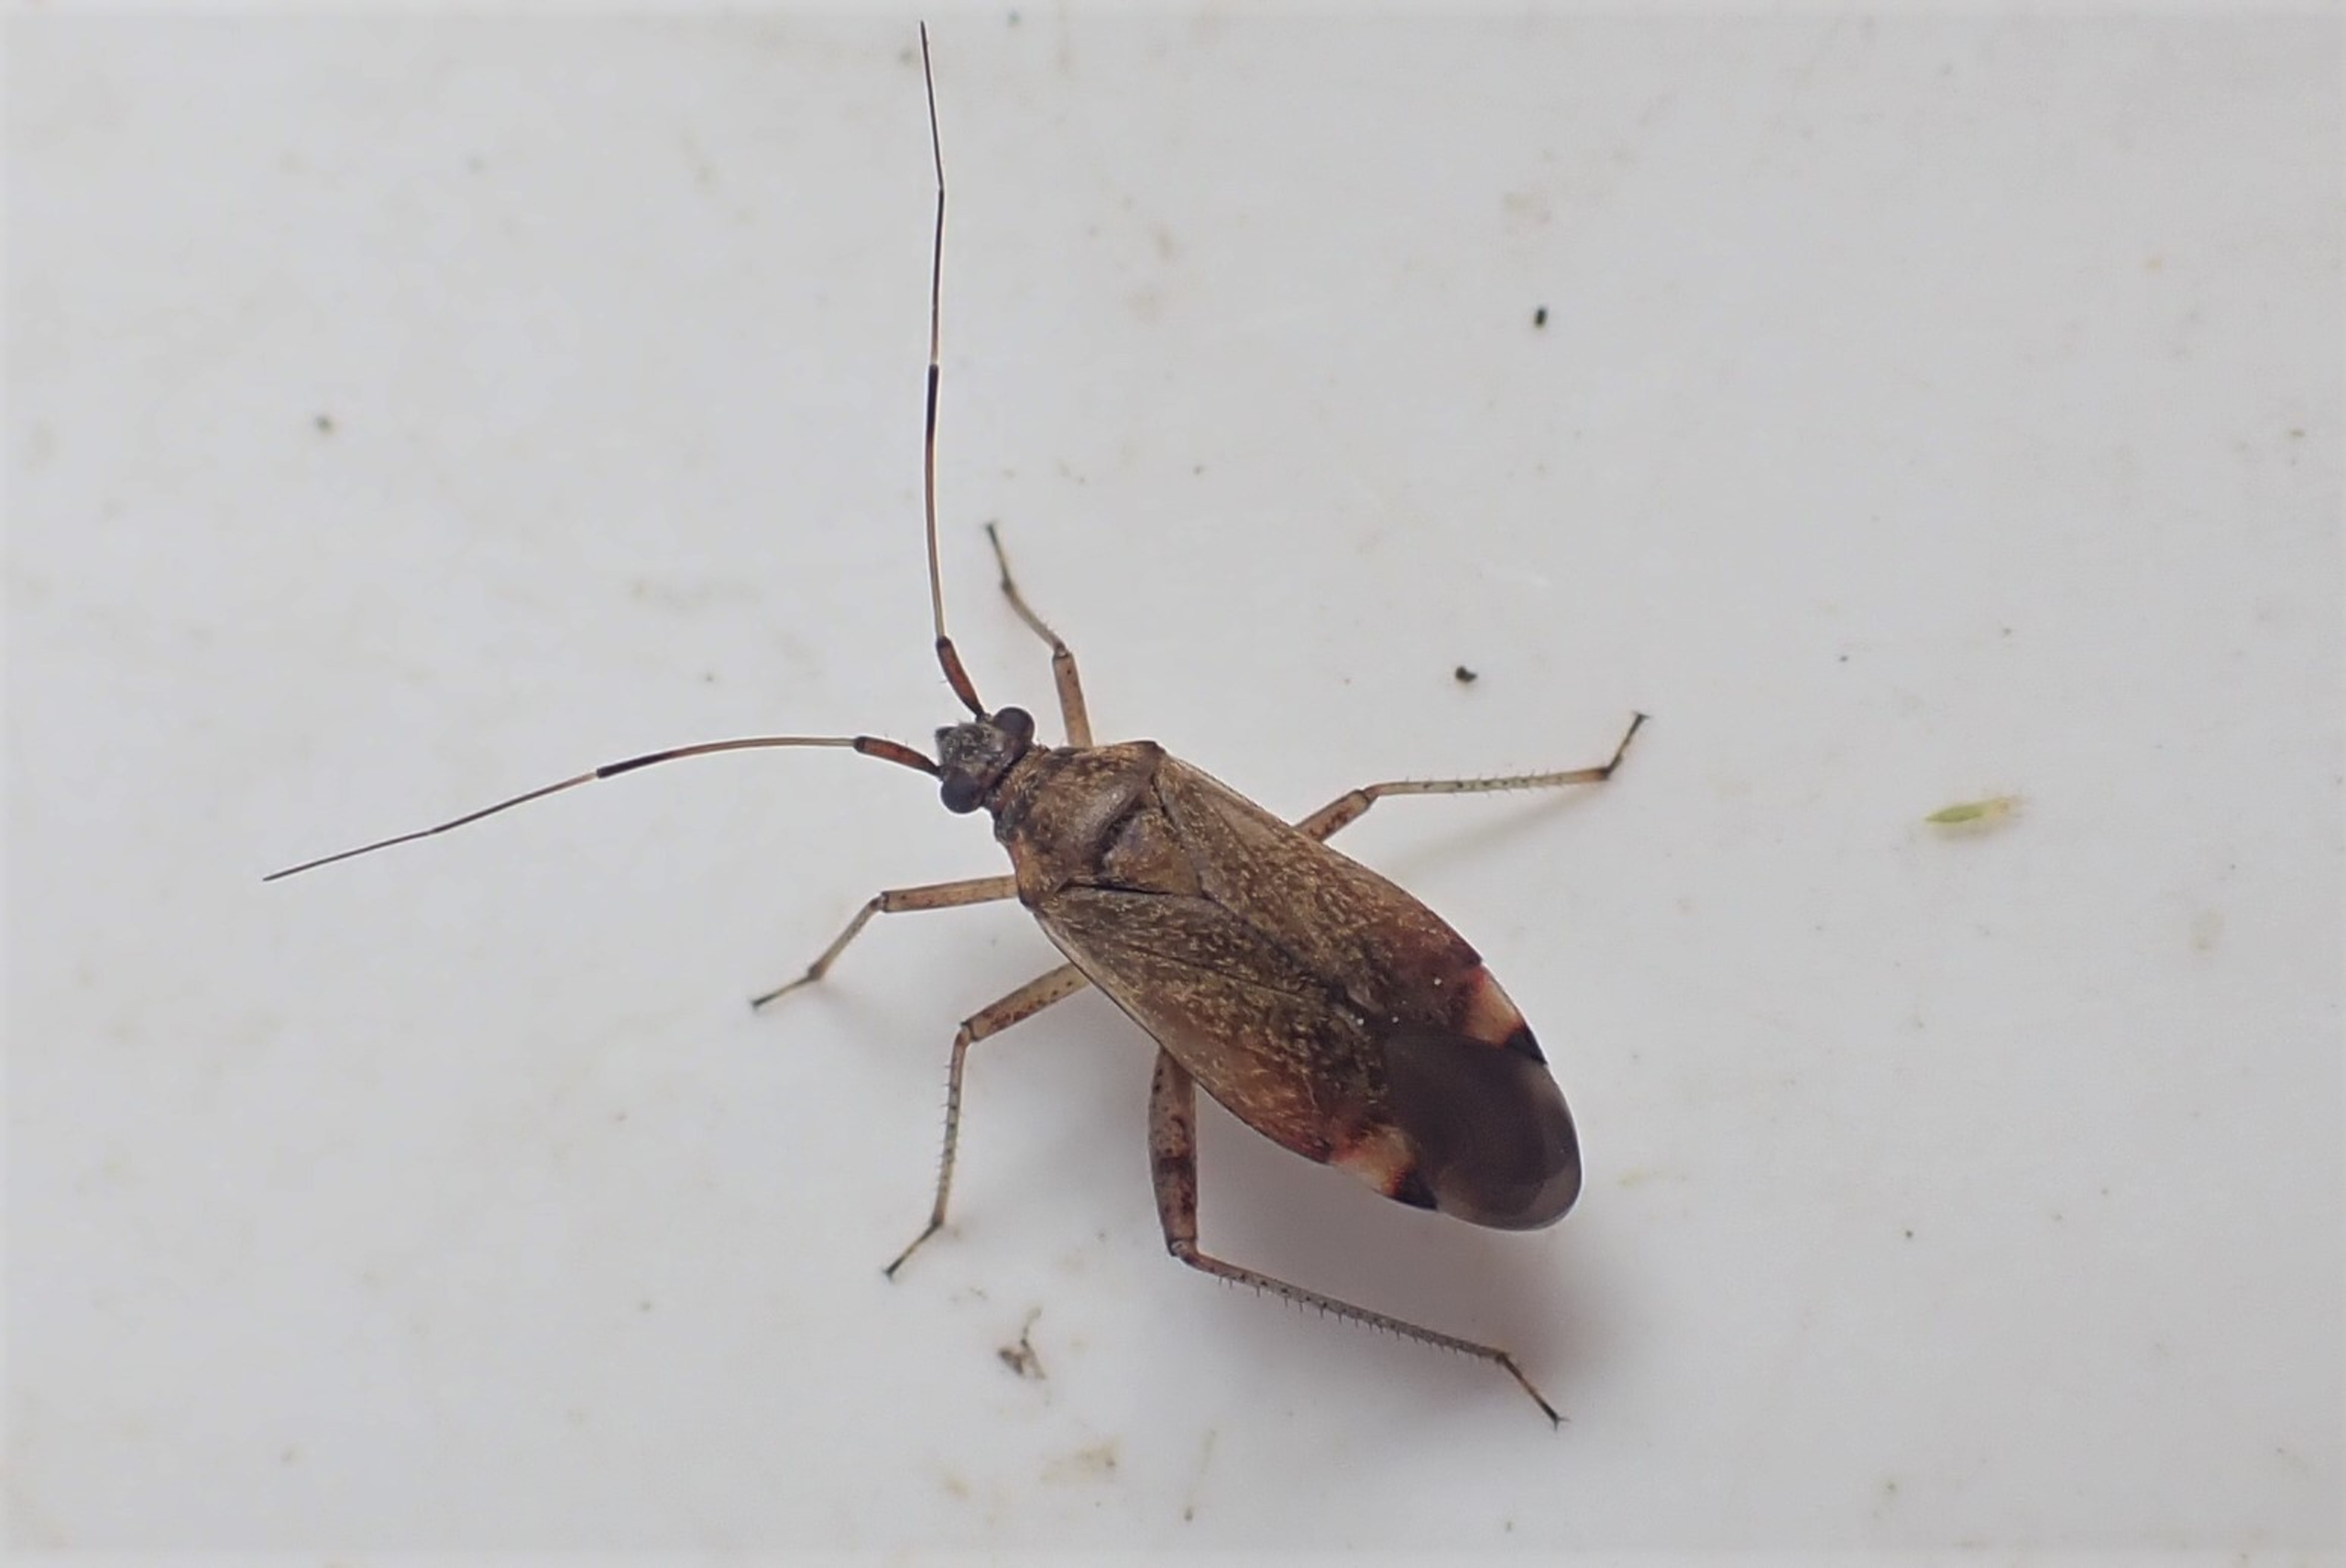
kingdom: Animalia
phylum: Arthropoda
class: Insecta
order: Hemiptera
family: Miridae
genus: Closterotomus
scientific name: Closterotomus fulvomaculatus
